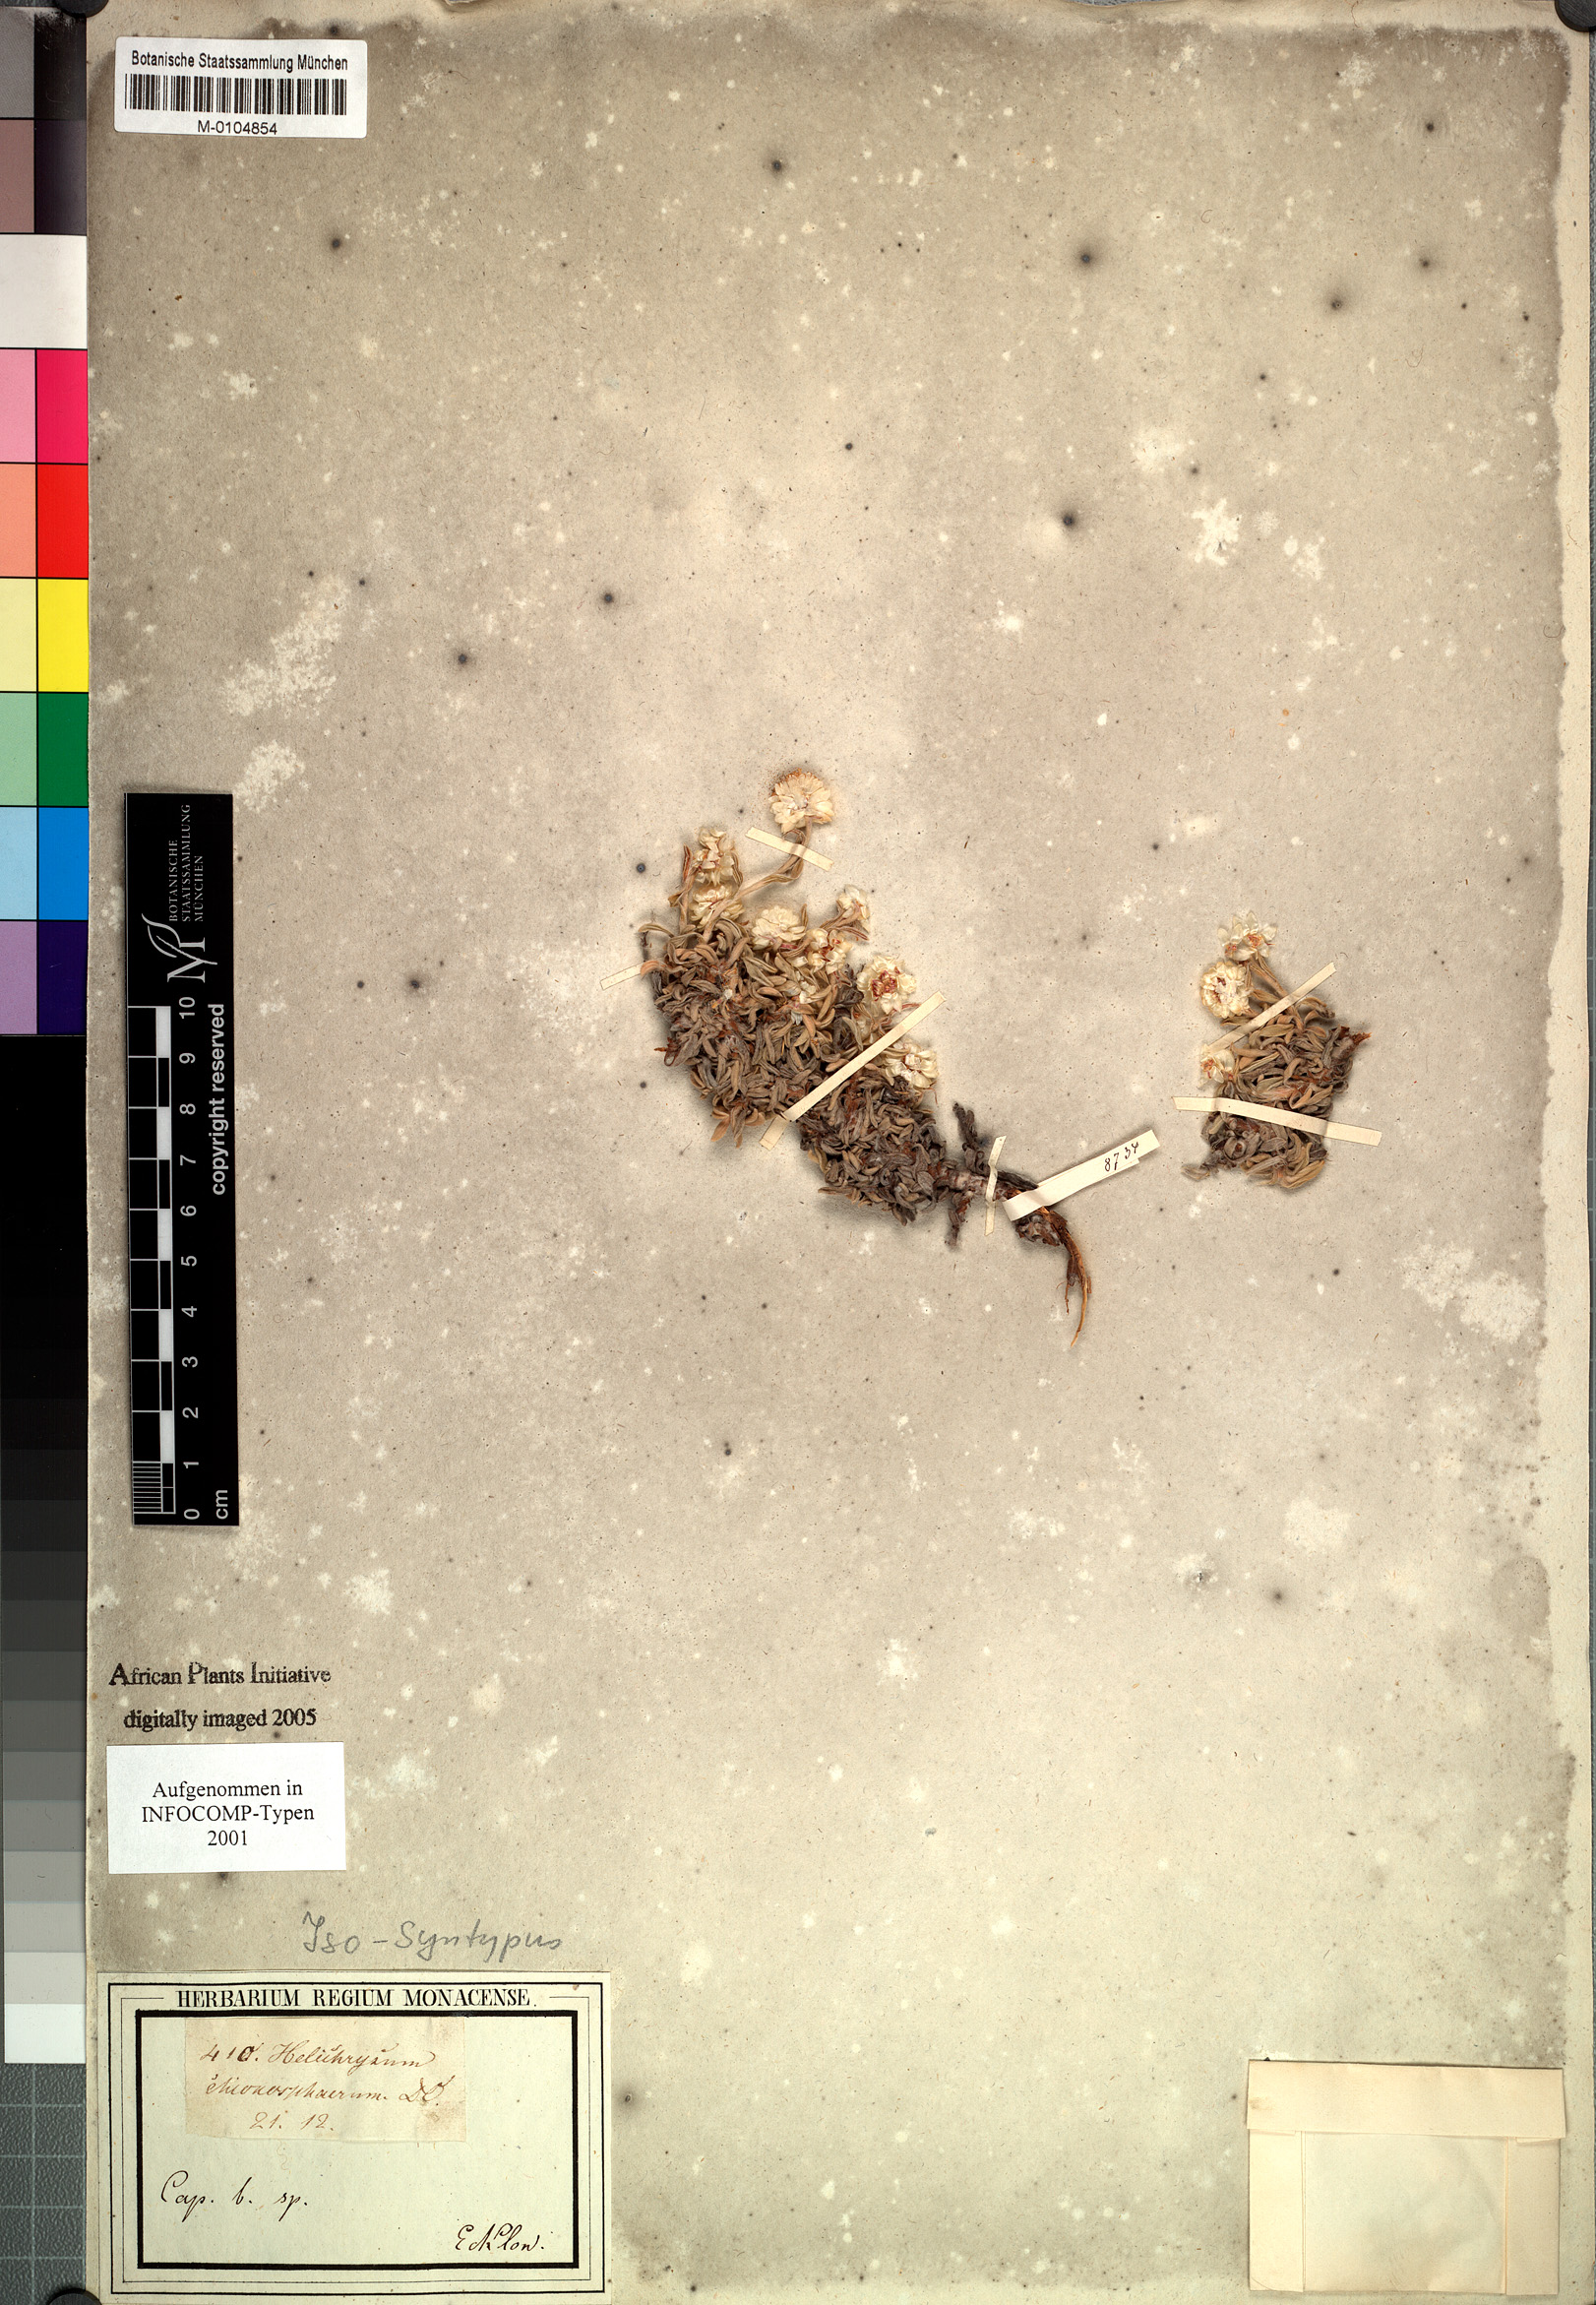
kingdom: Plantae
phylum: Tracheophyta
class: Magnoliopsida
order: Asterales
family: Asteraceae
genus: Helichrysum
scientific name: Helichrysum chionosphaerum
